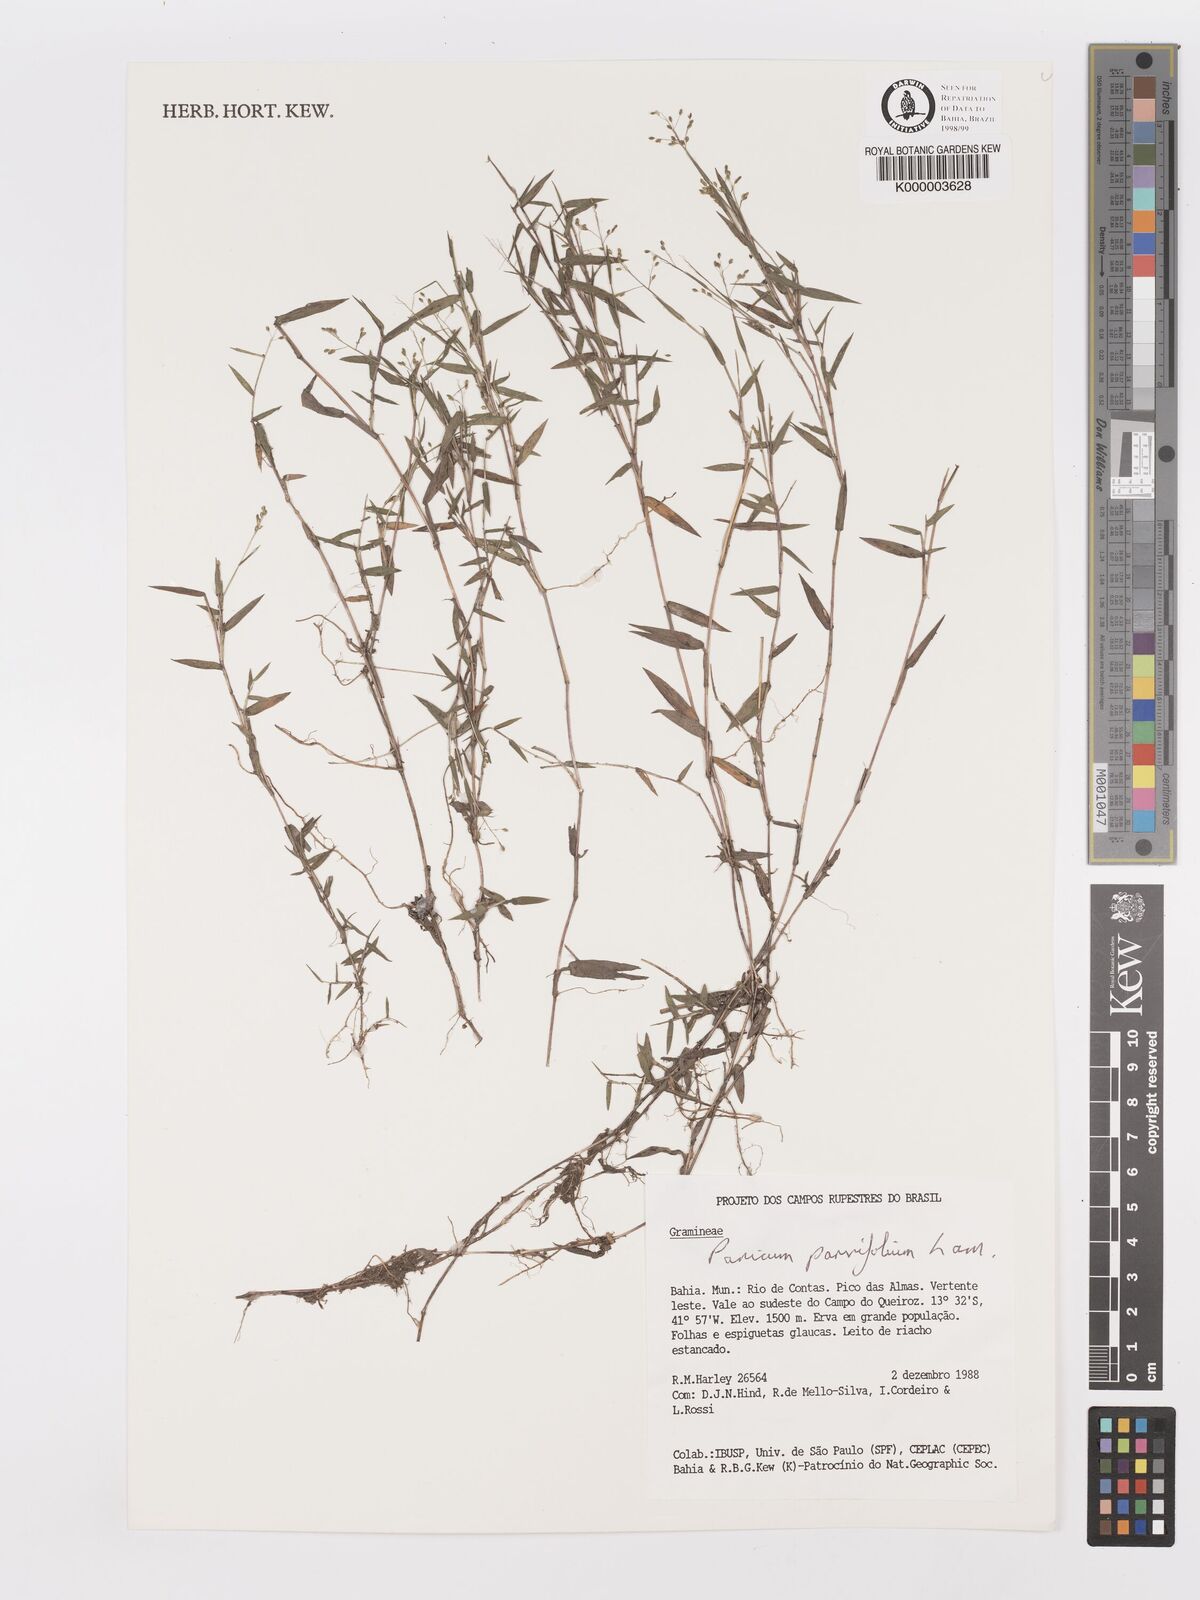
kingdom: Plantae
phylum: Tracheophyta
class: Liliopsida
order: Poales
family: Poaceae
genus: Trichanthecium
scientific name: Trichanthecium parvifolium
